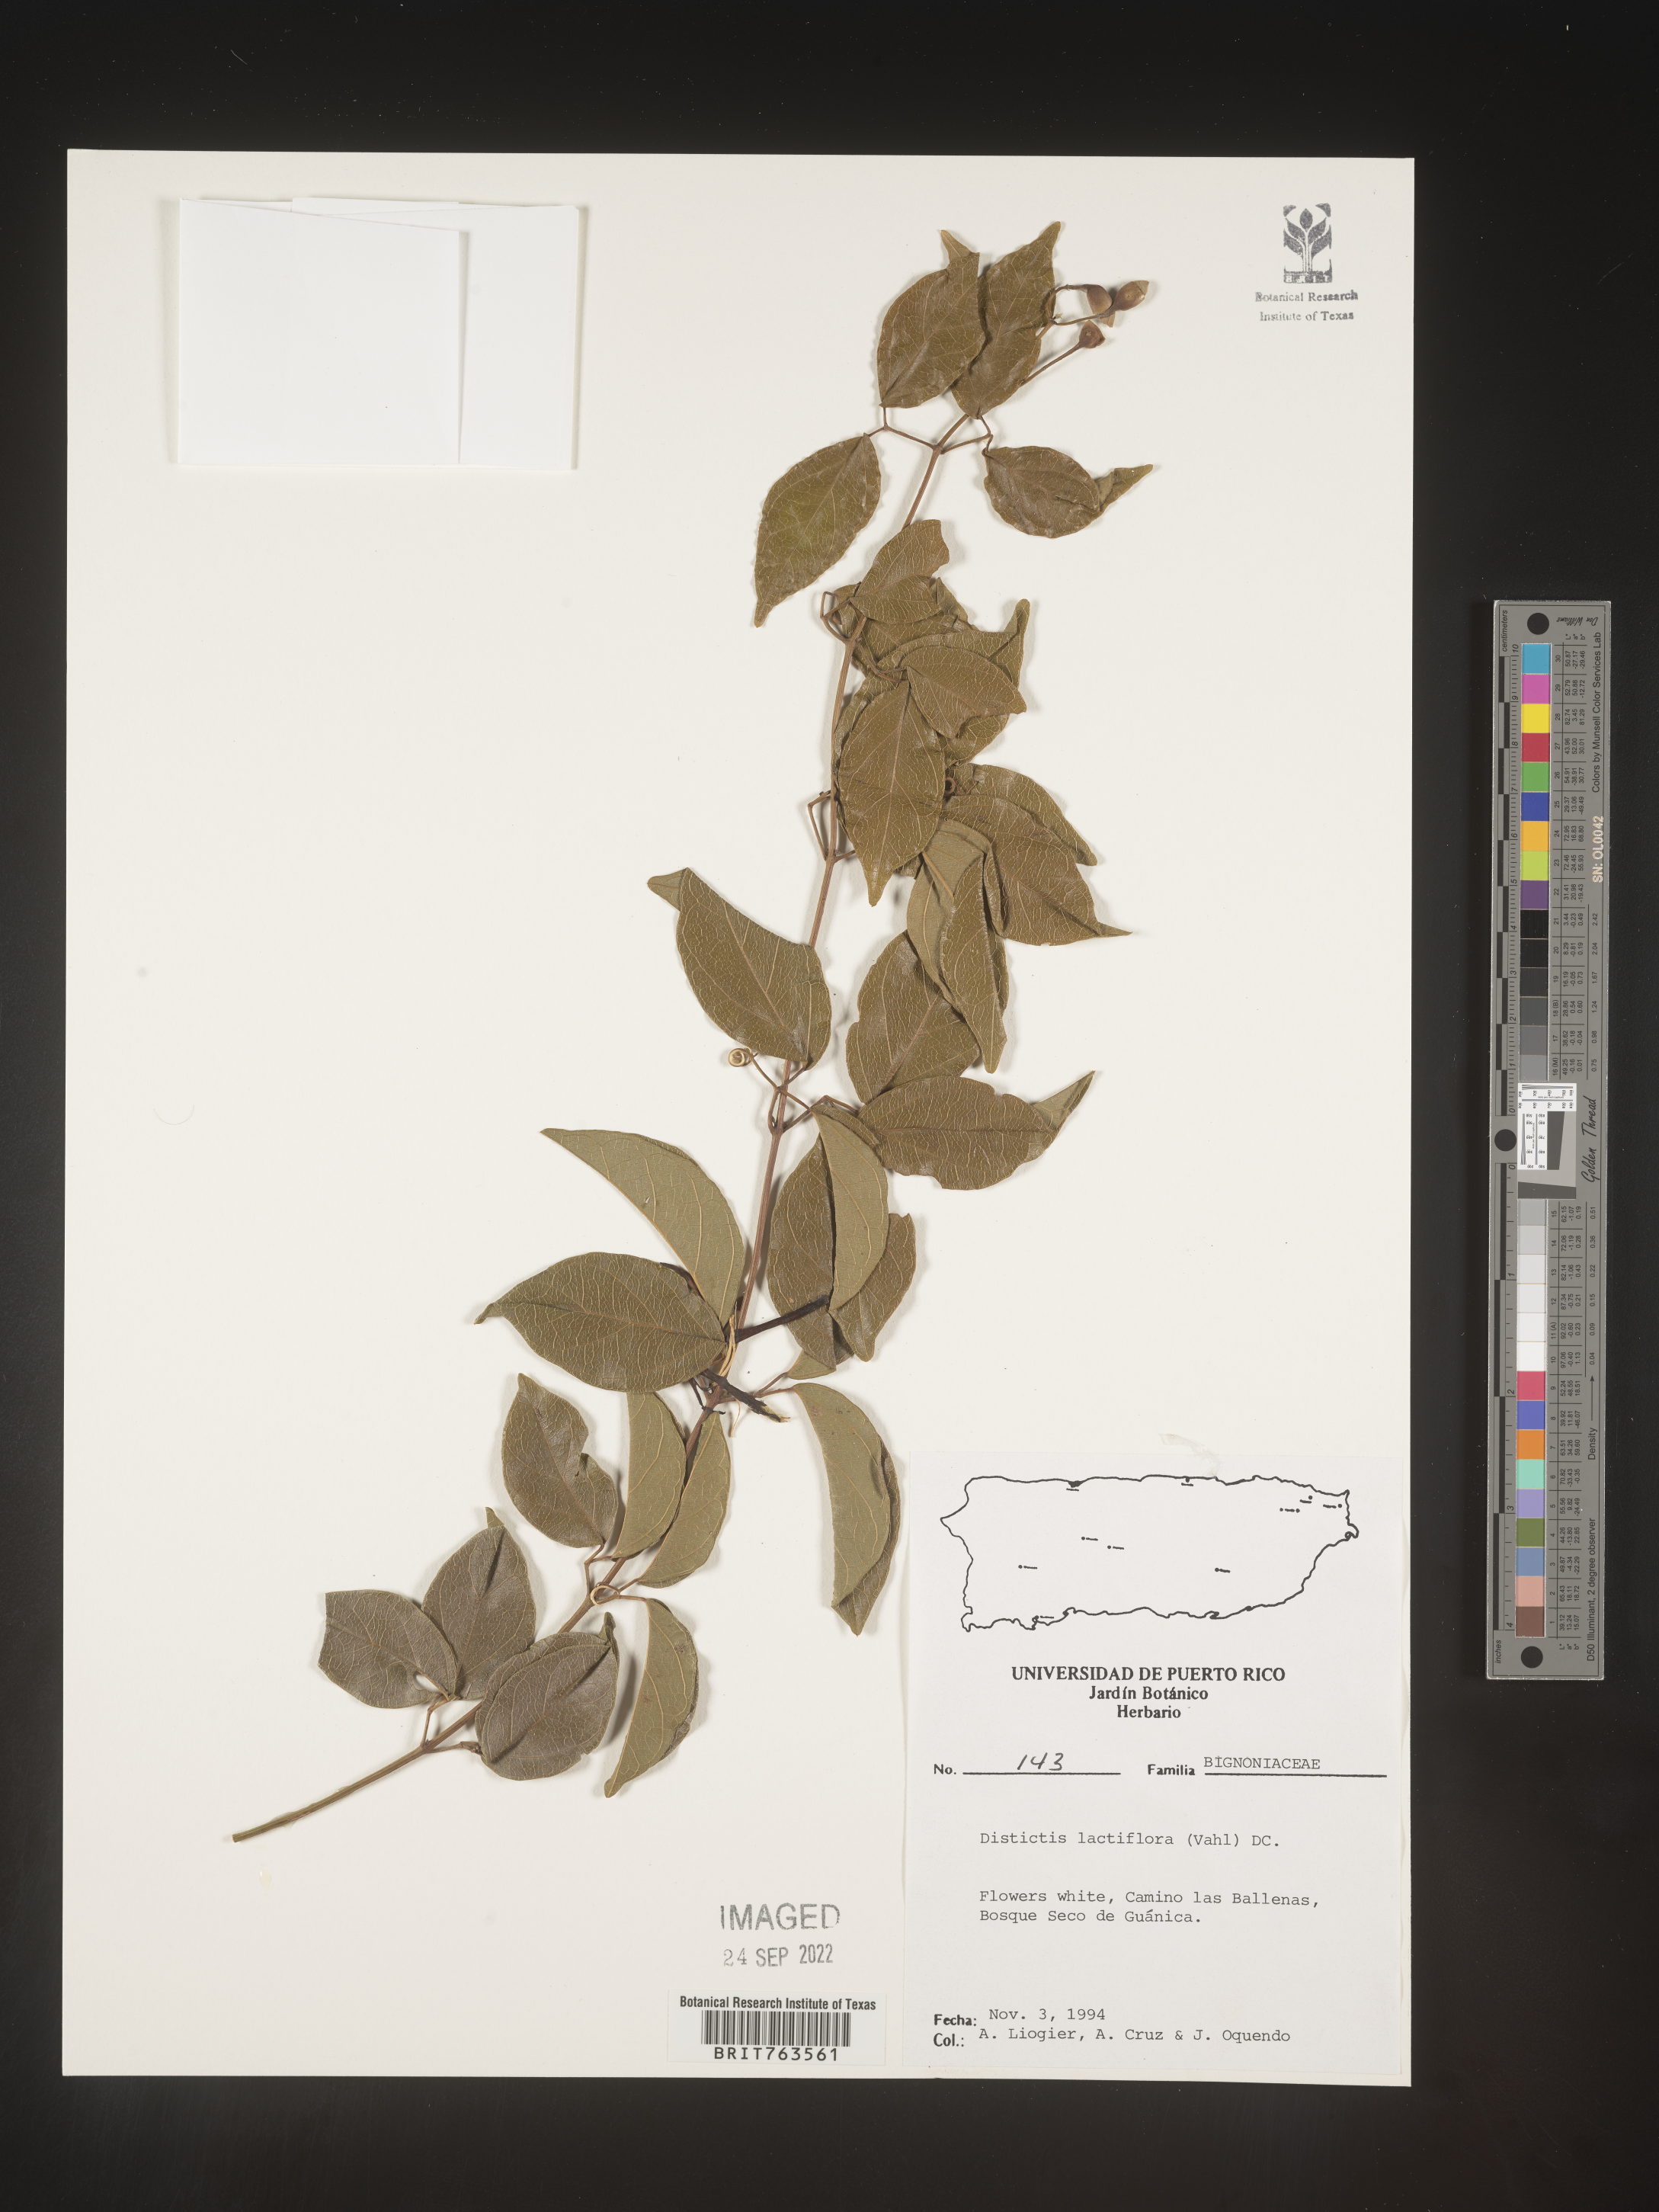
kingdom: Plantae
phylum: Tracheophyta
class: Magnoliopsida
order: Lamiales
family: Bignoniaceae
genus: Amphilophium
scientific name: Amphilophium
